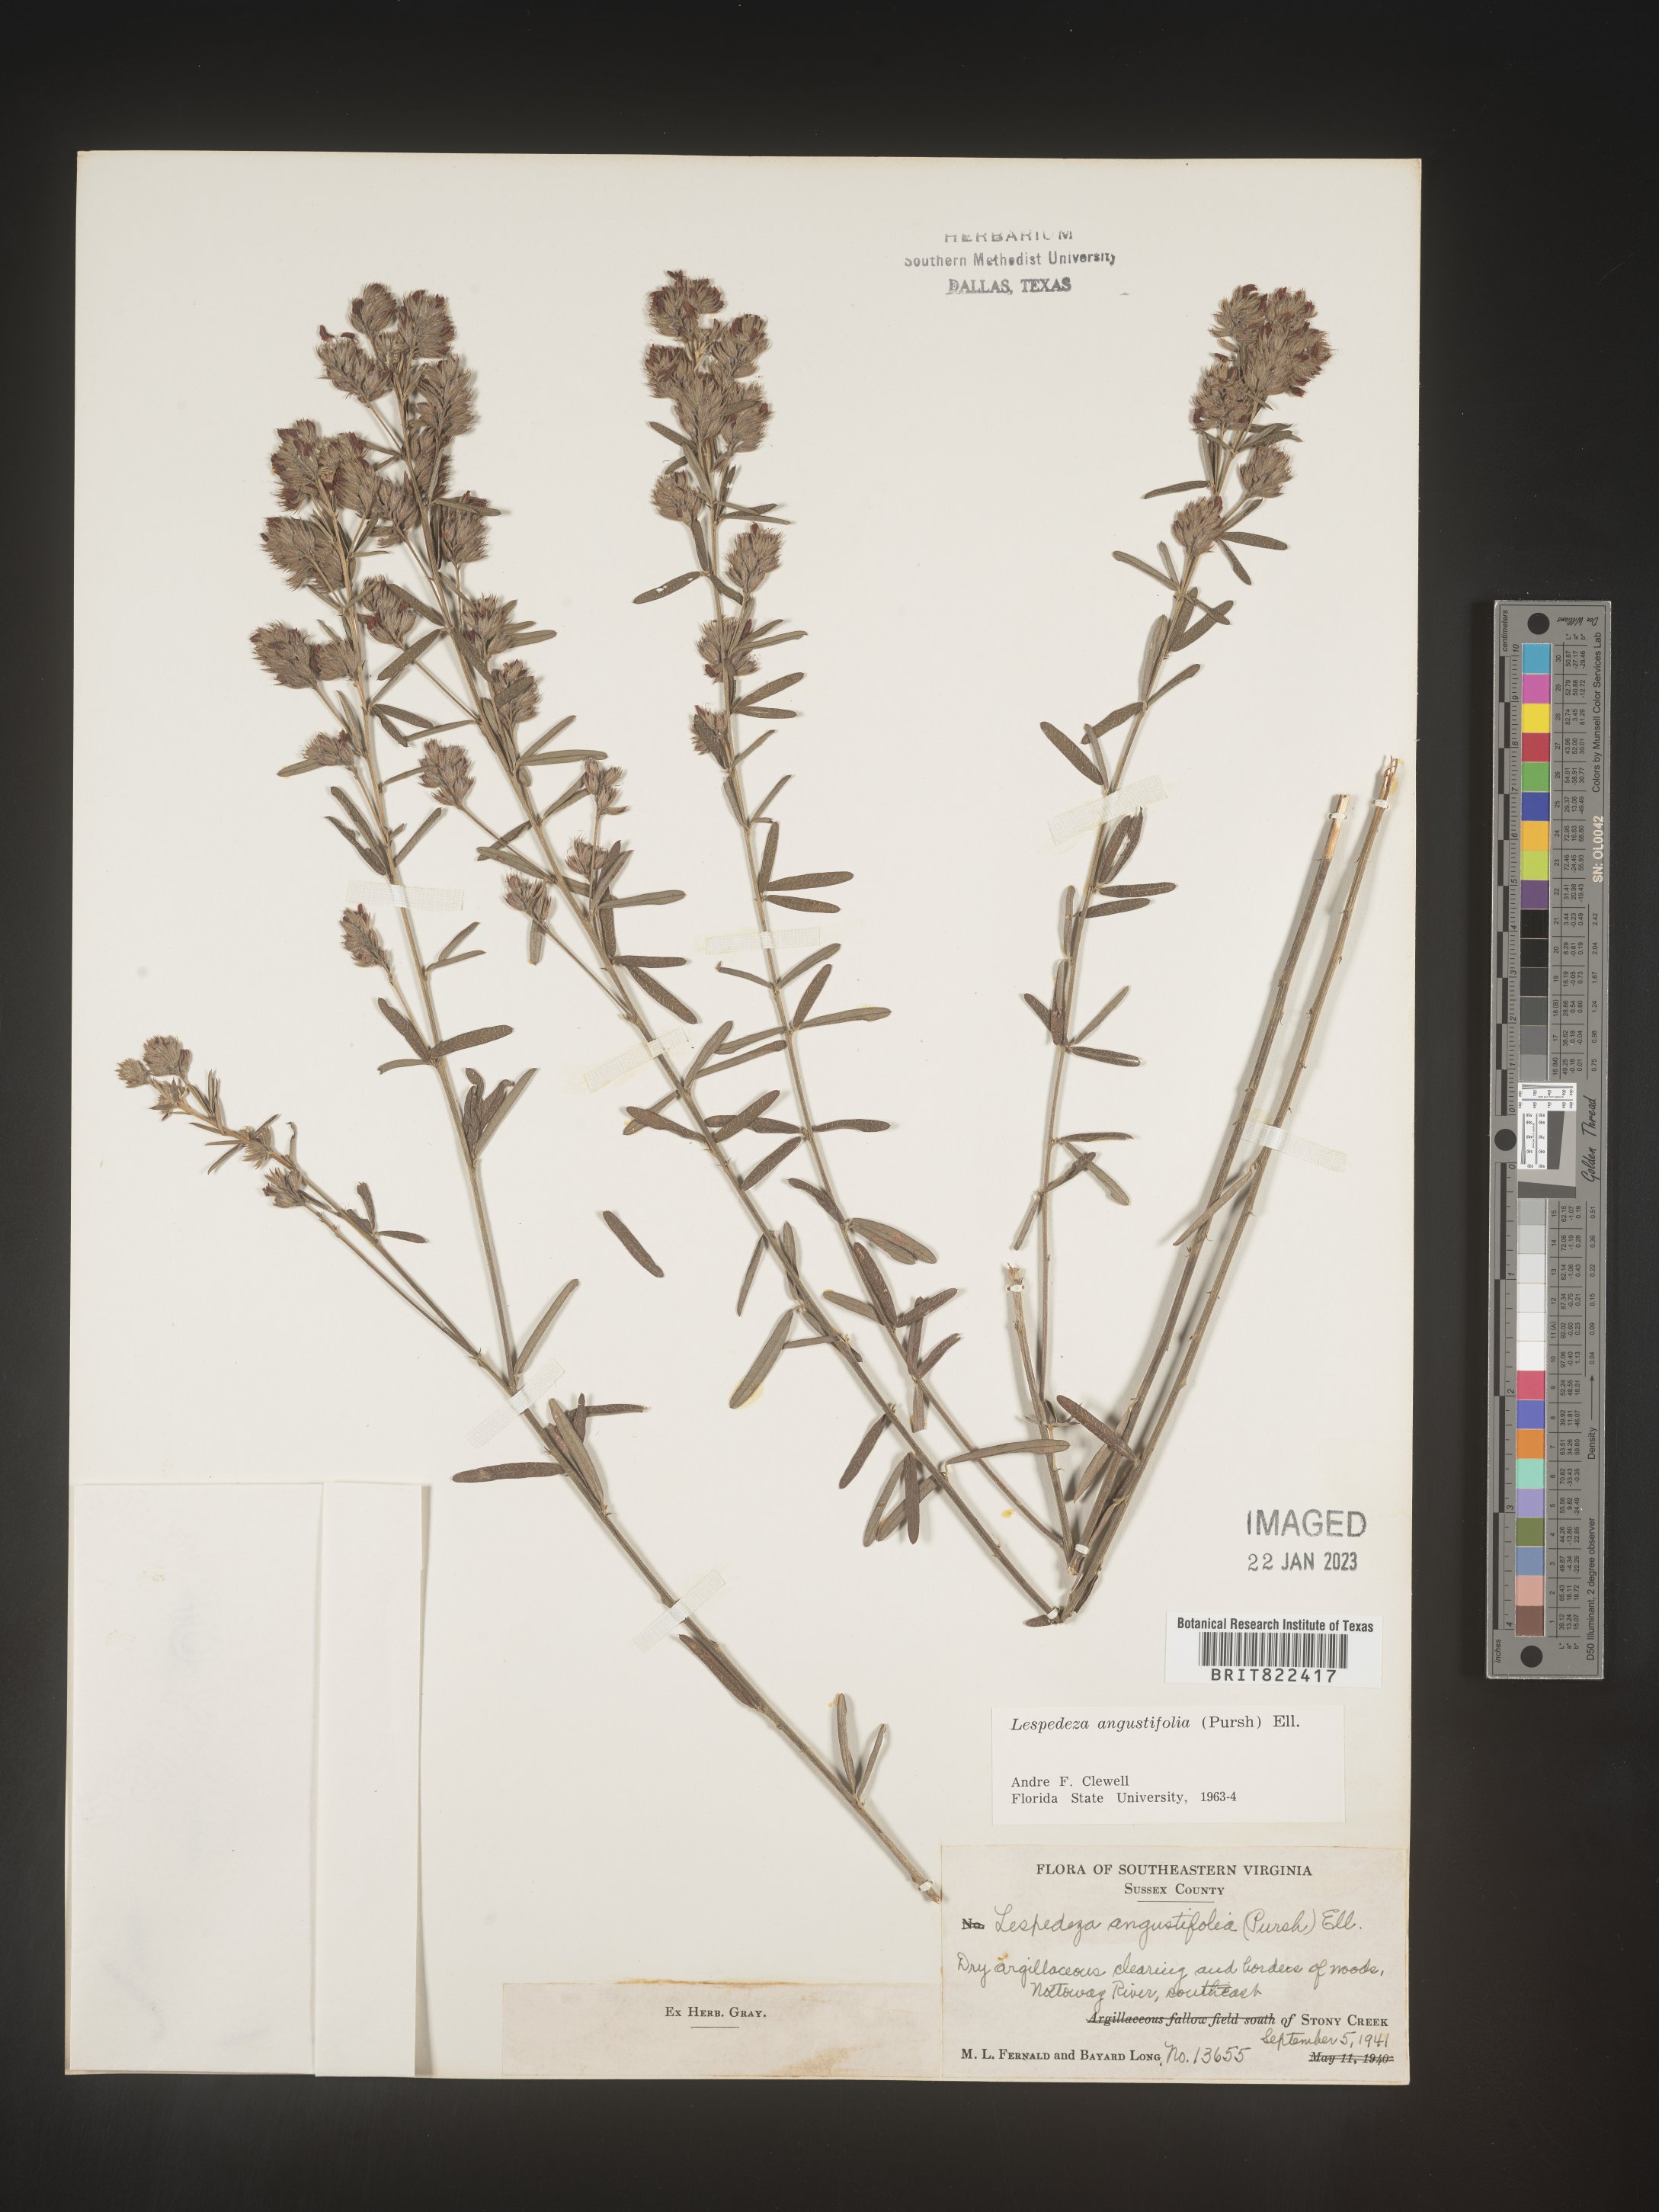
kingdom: Plantae
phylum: Tracheophyta
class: Magnoliopsida
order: Fabales
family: Fabaceae
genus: Lespedeza
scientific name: Lespedeza
